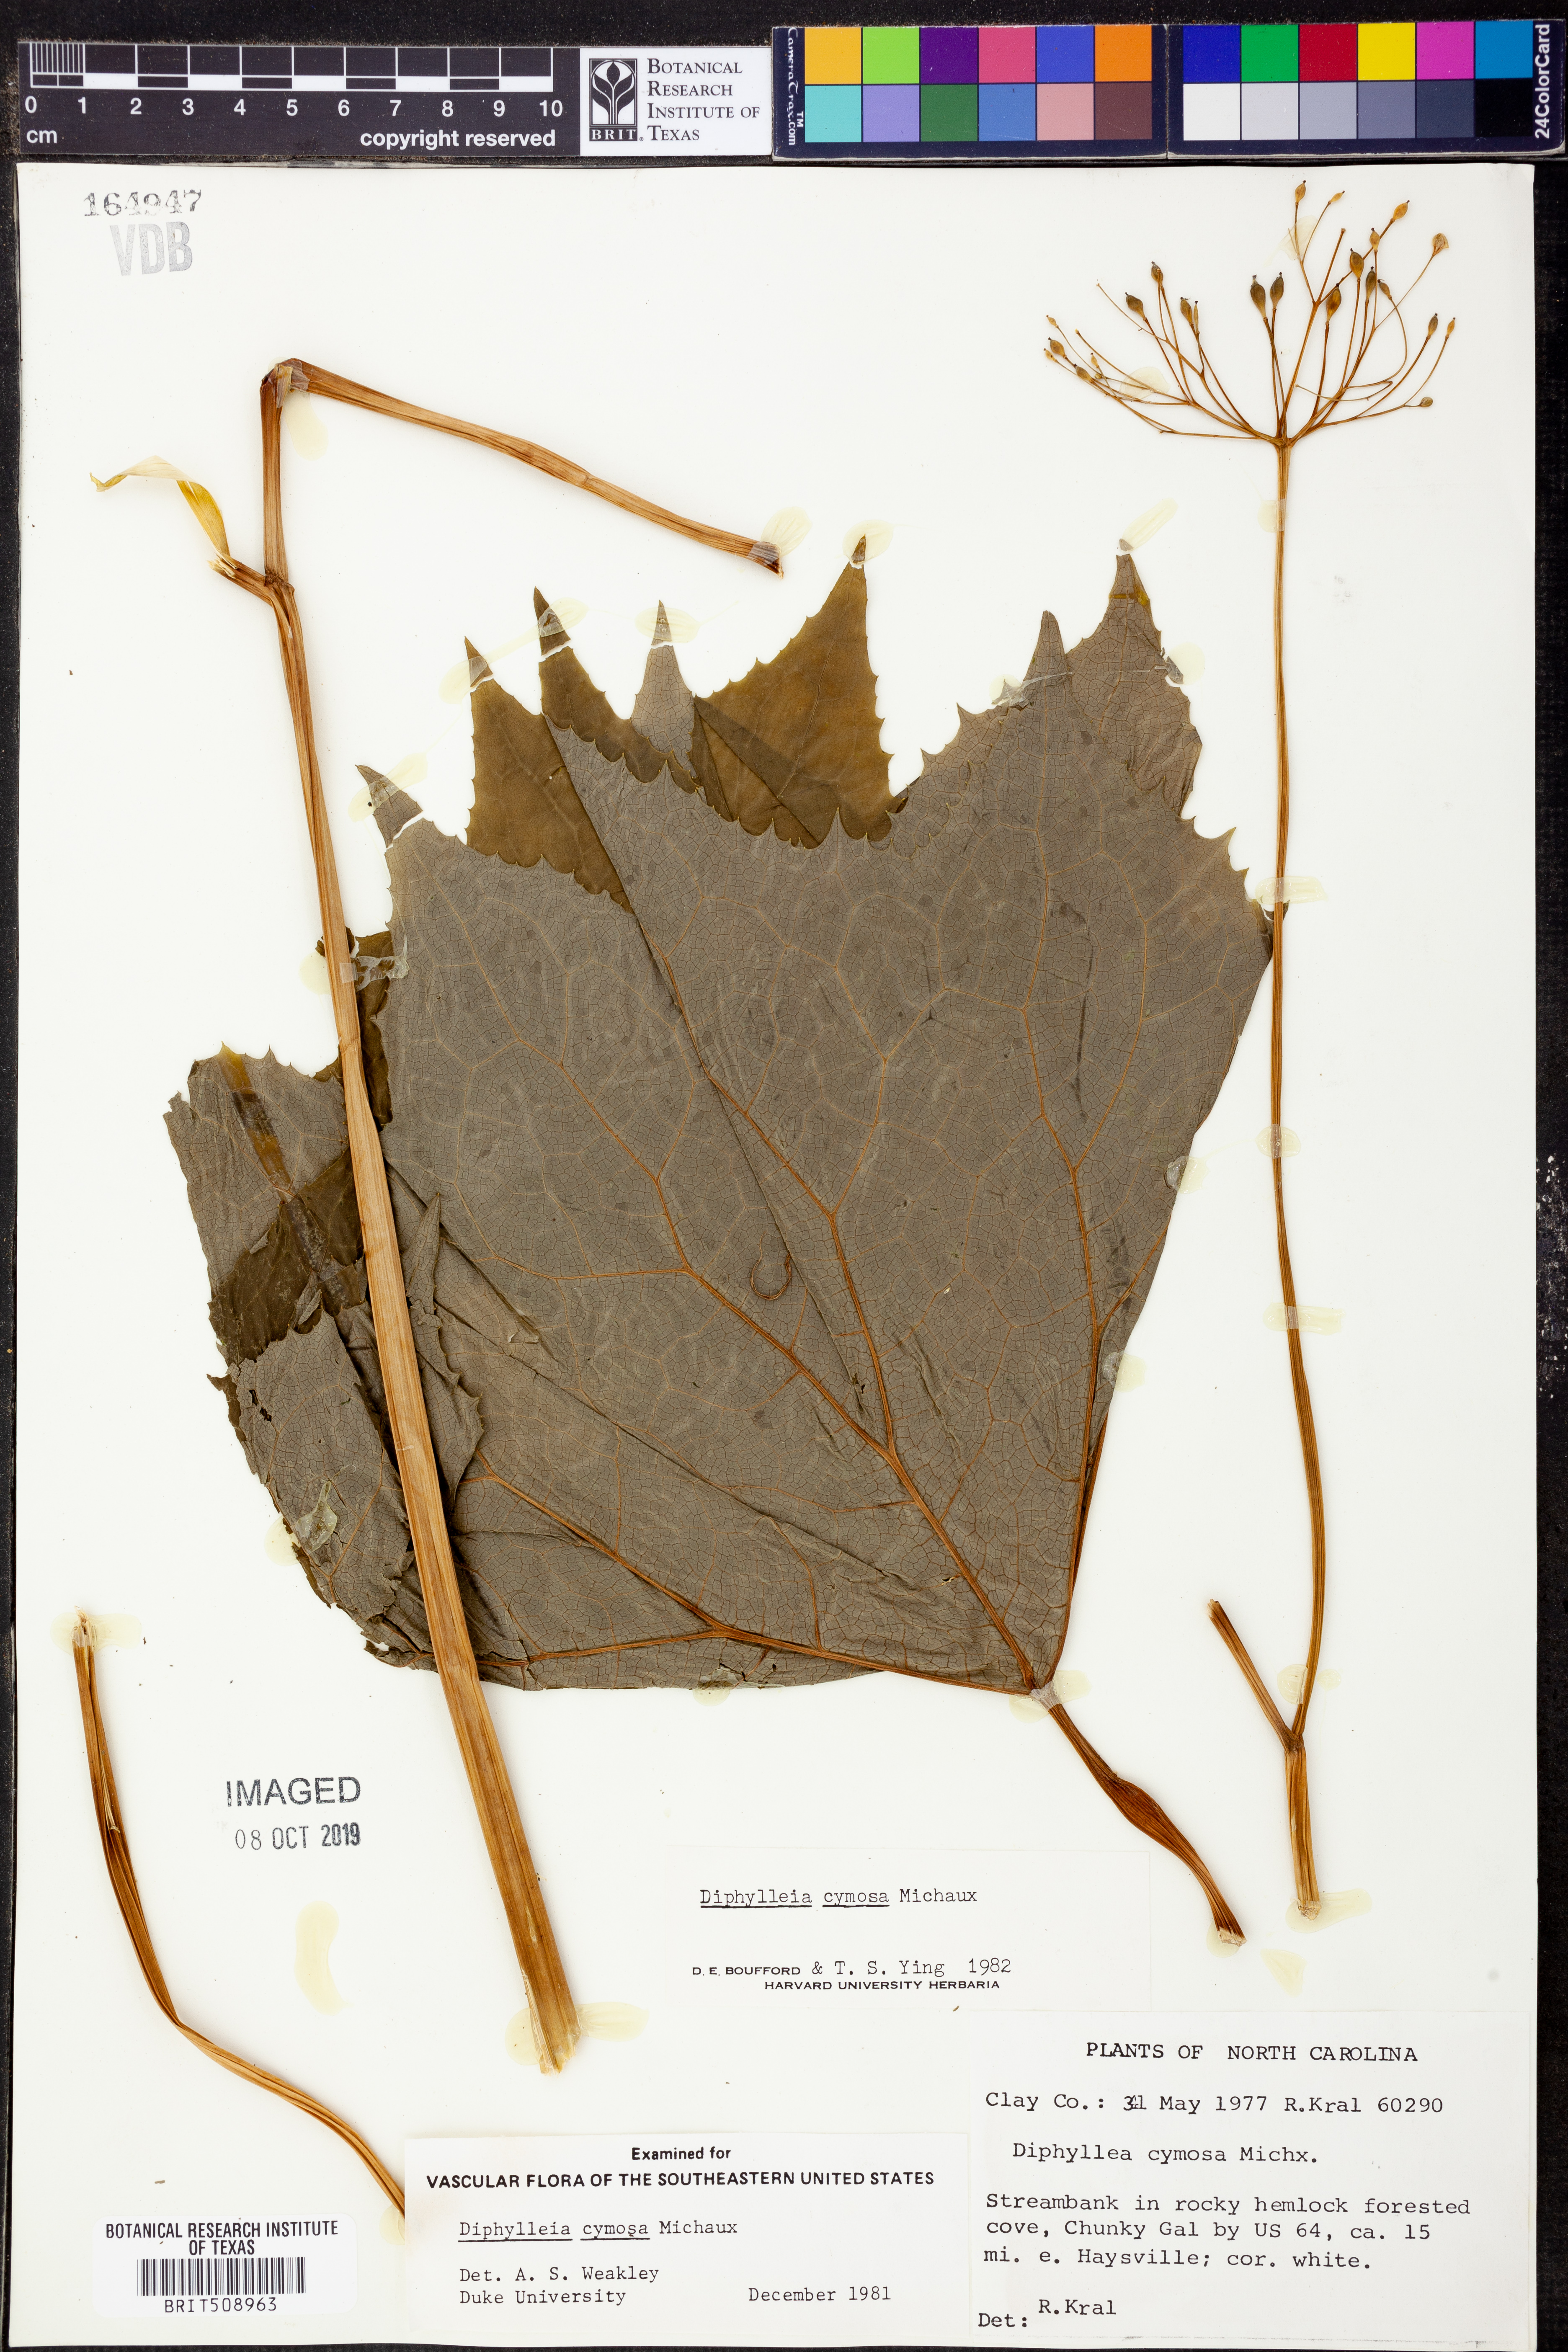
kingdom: Plantae
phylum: Tracheophyta
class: Magnoliopsida
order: Ranunculales
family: Berberidaceae
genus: Diphylleia
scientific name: Diphylleia cymosa
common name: Umbrella-leaf
